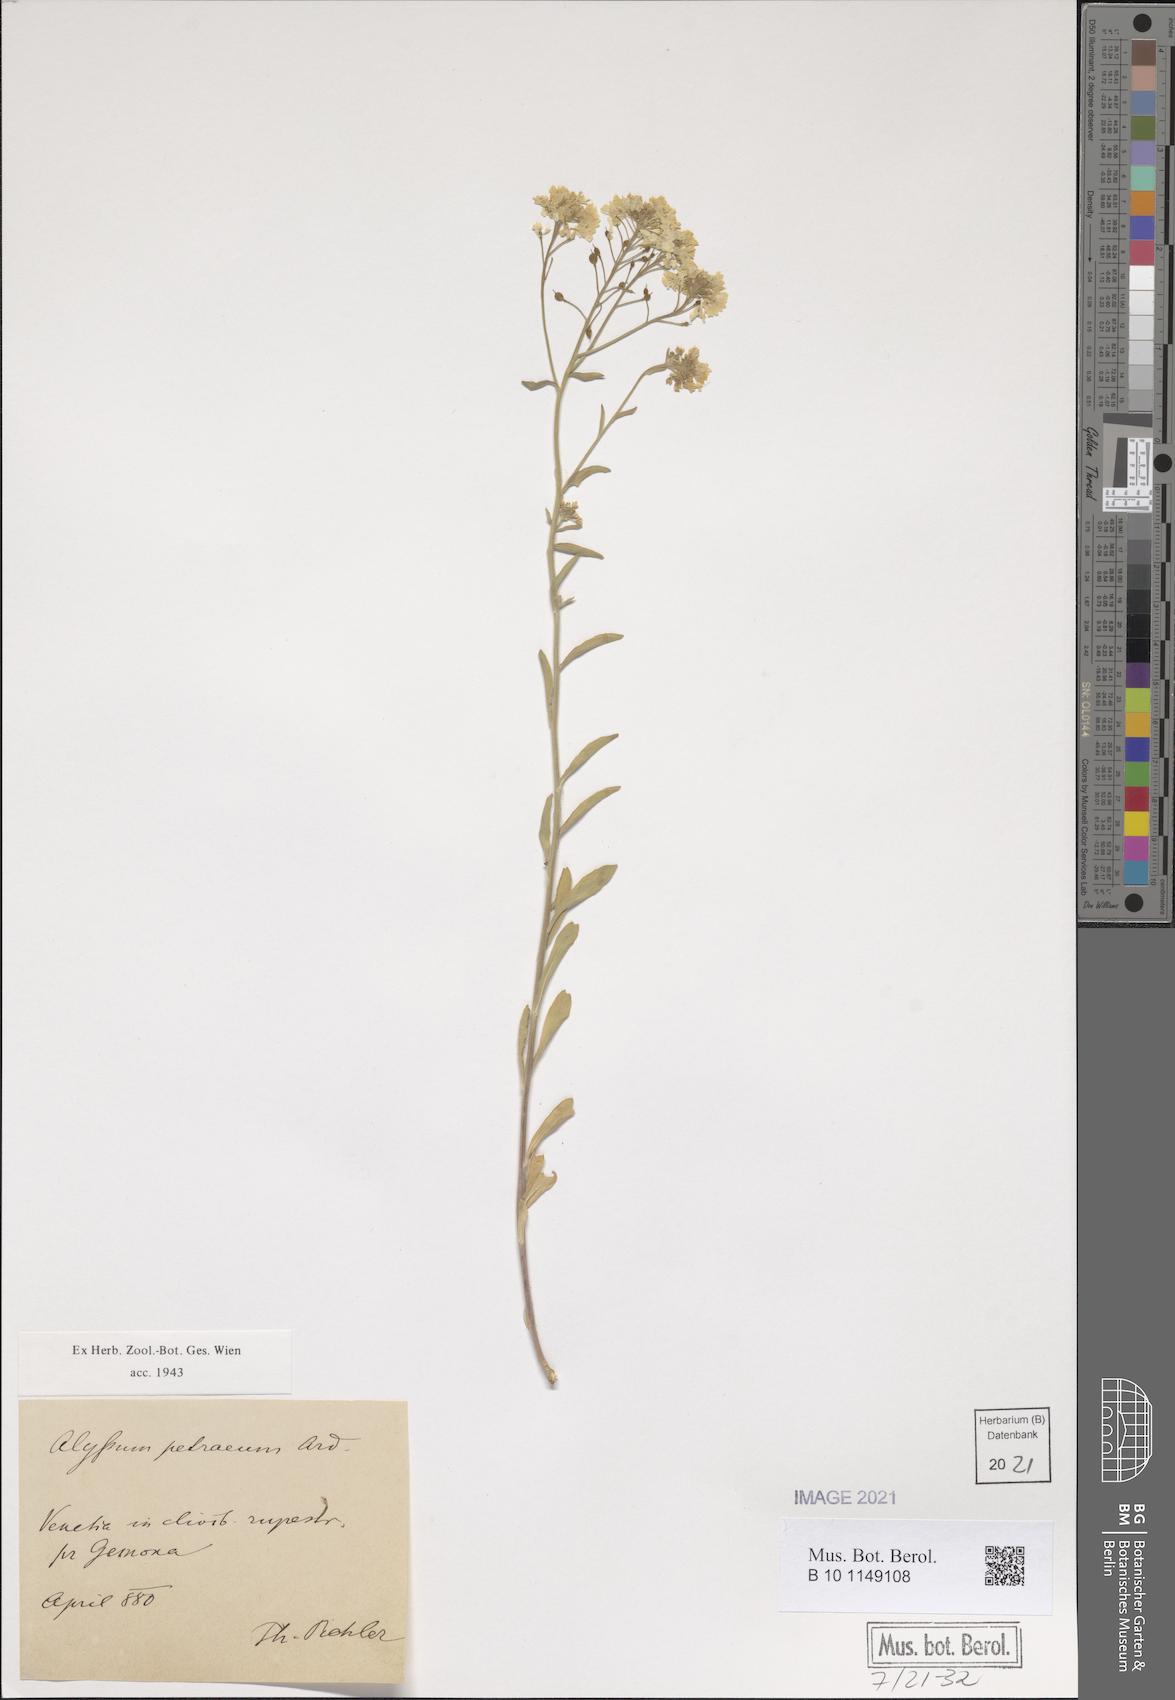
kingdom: Plantae
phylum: Tracheophyta
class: Magnoliopsida
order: Brassicales
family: Brassicaceae
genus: Aurinia
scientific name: Aurinia petraea
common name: Goldentuft
